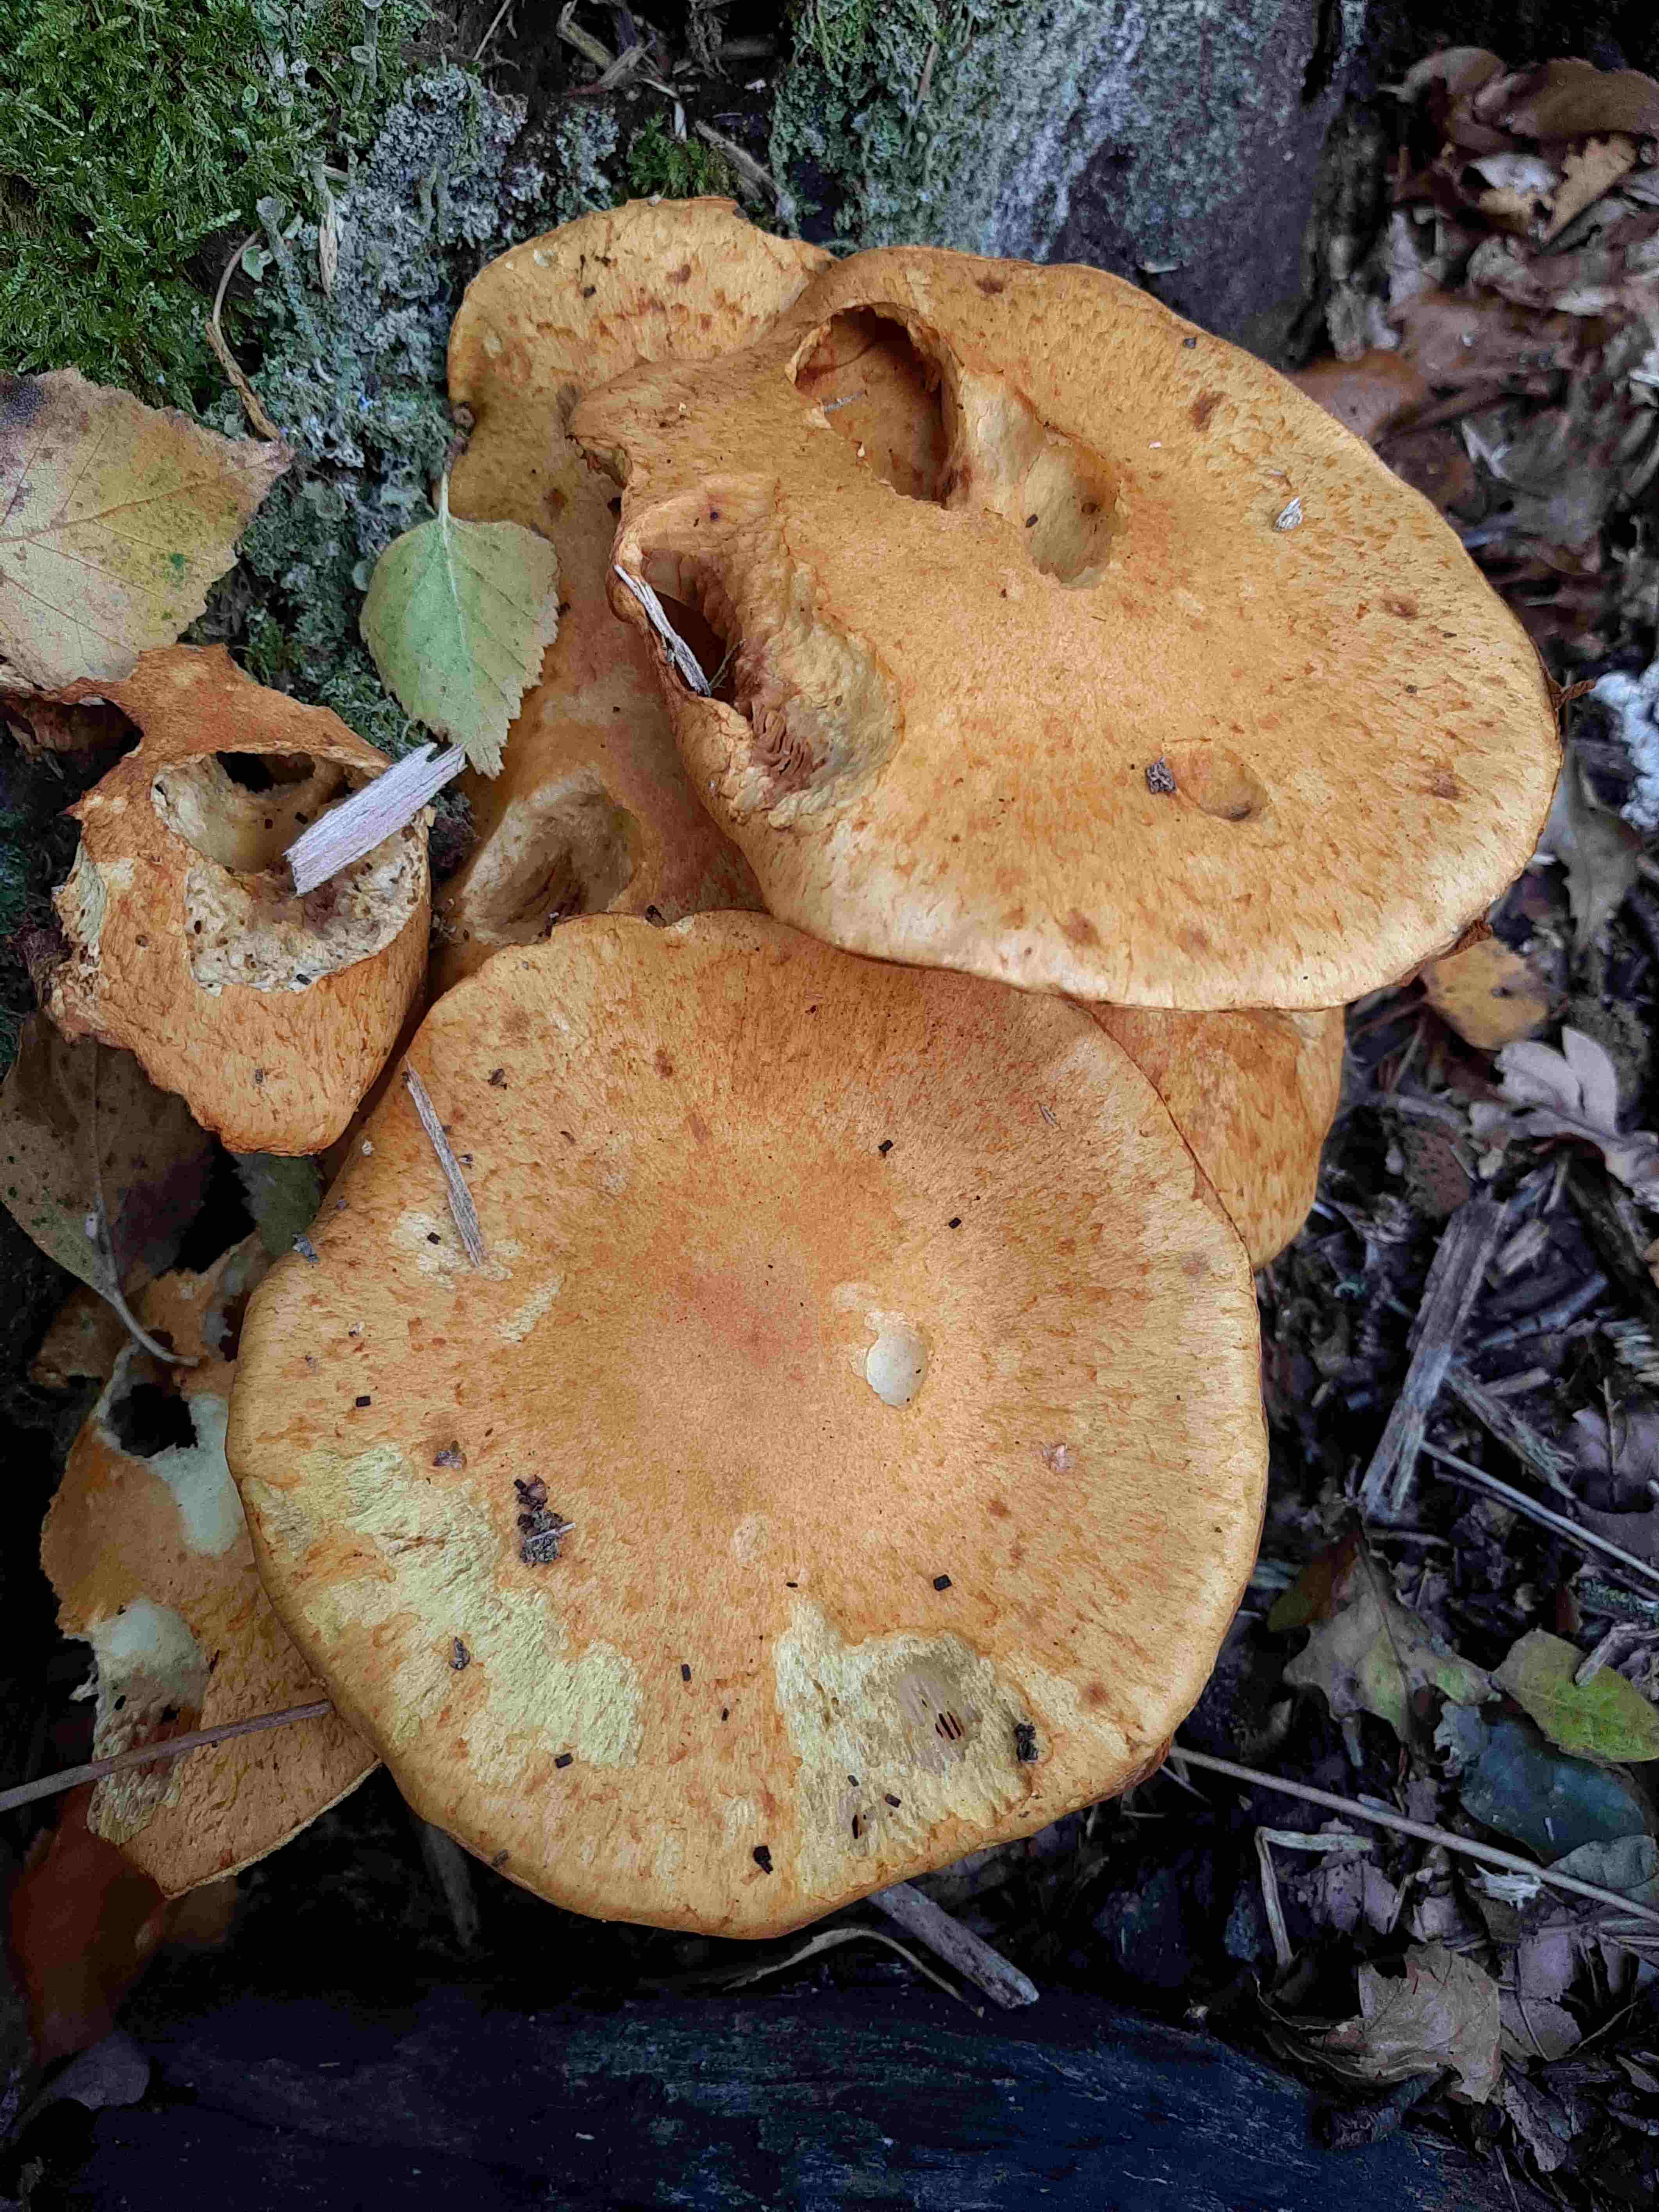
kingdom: Fungi
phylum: Basidiomycota
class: Agaricomycetes
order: Agaricales
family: Hymenogastraceae
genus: Gymnopilus
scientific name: Gymnopilus spectabilis
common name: fibret flammehat
